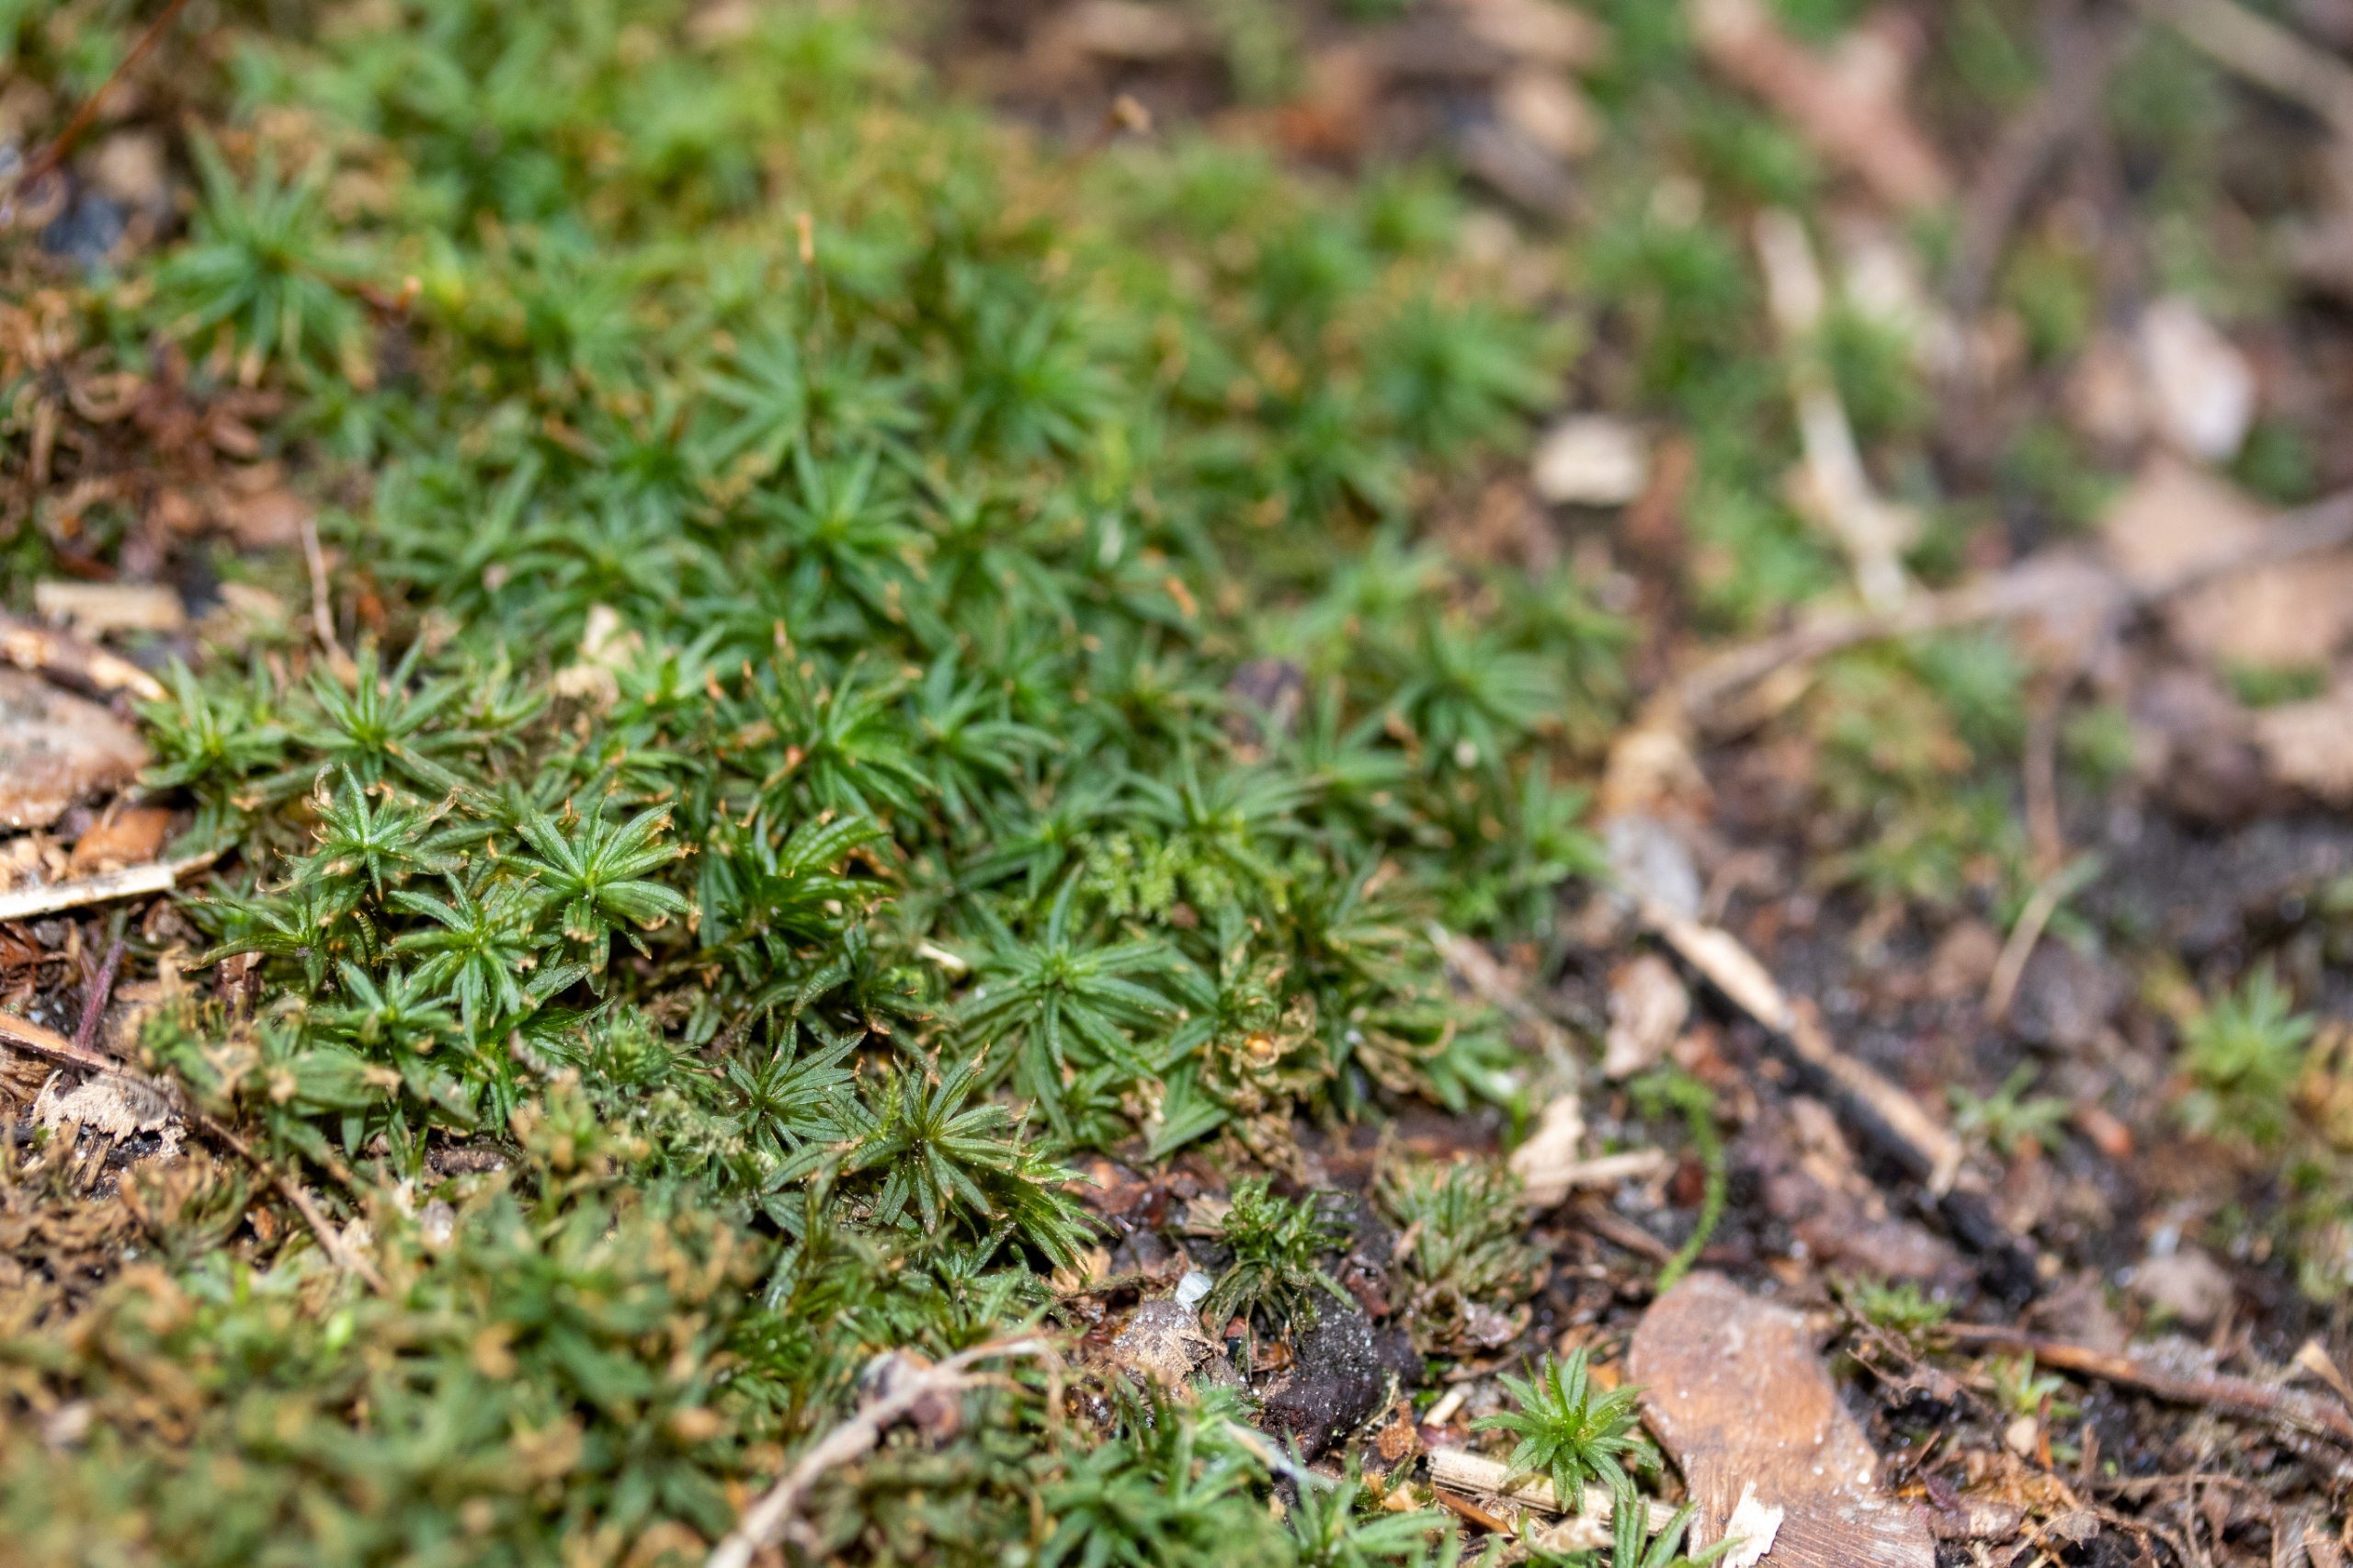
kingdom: Plantae
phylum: Bryophyta
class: Polytrichopsida
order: Polytrichales
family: Polytrichaceae
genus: Atrichum
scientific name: Atrichum undulatum
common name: Bølget katrinemos
